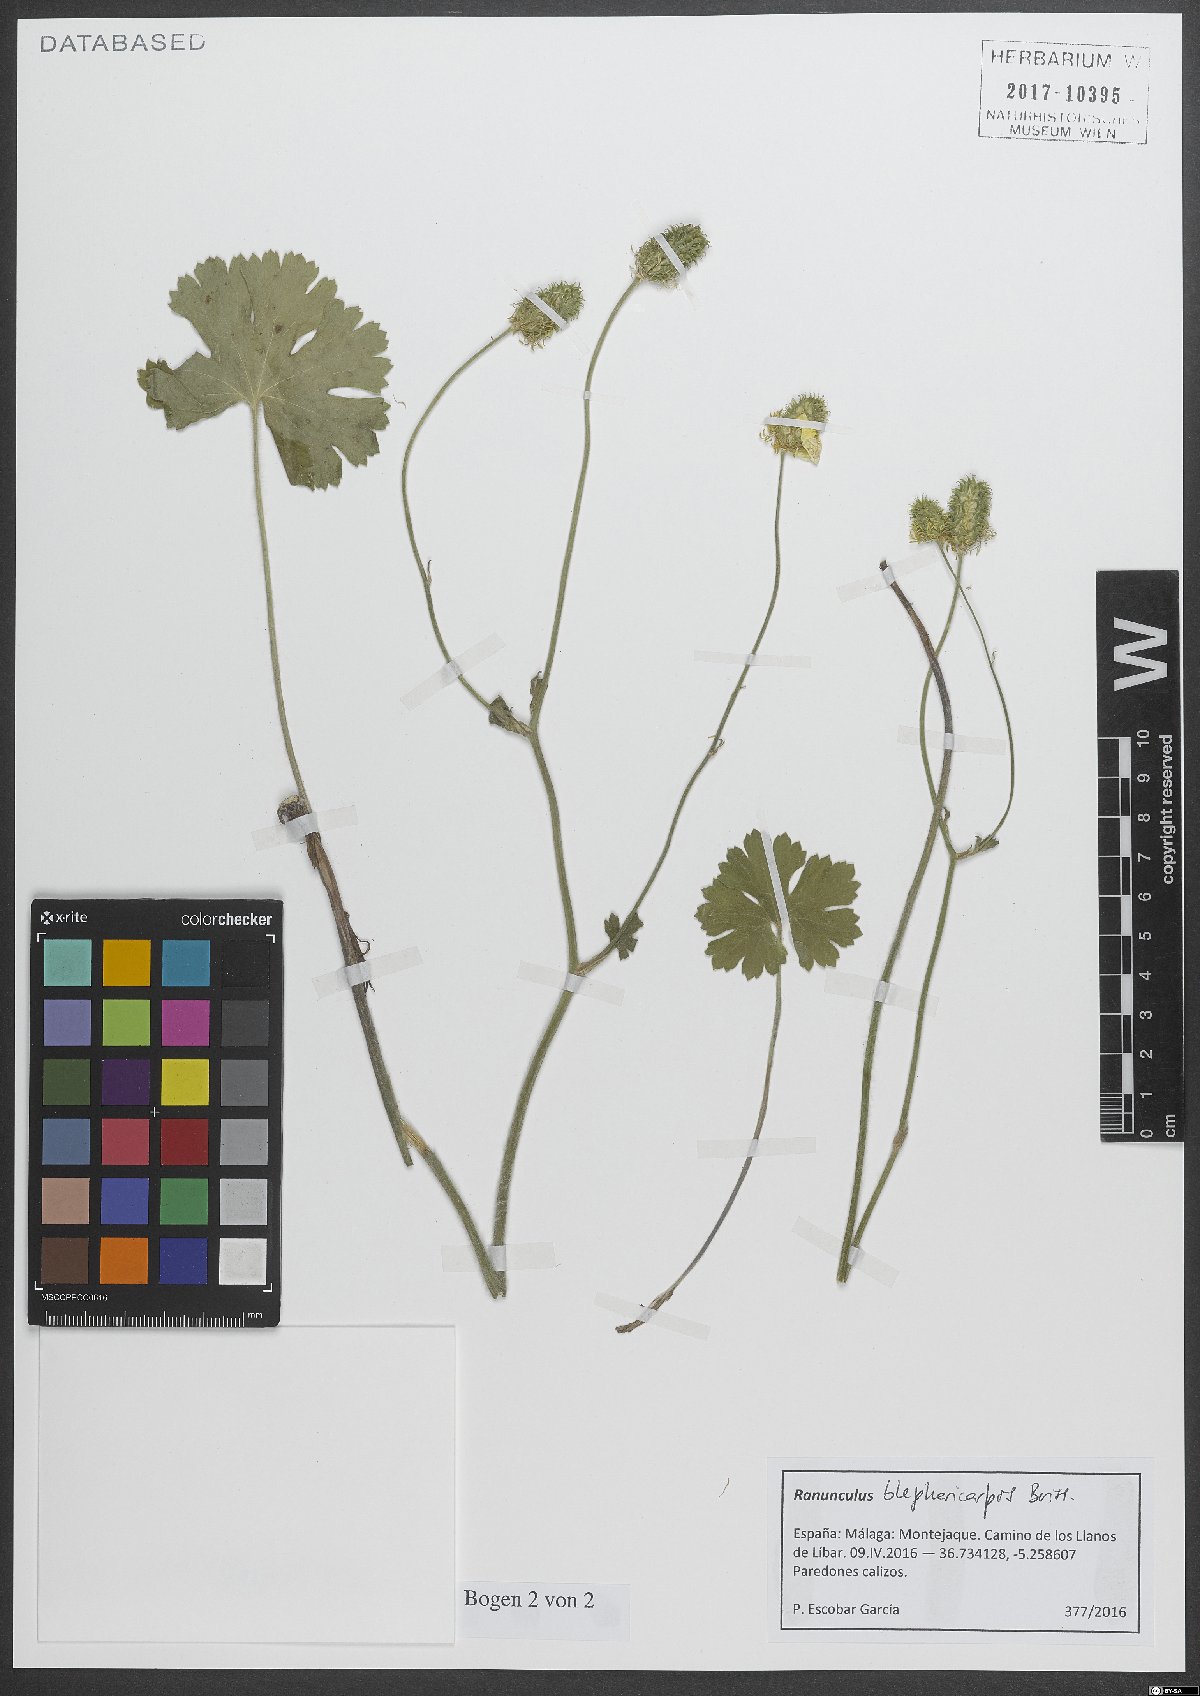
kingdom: Plantae
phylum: Tracheophyta
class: Magnoliopsida
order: Ranunculales
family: Ranunculaceae
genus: Ranunculus
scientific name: Ranunculus spicatus
